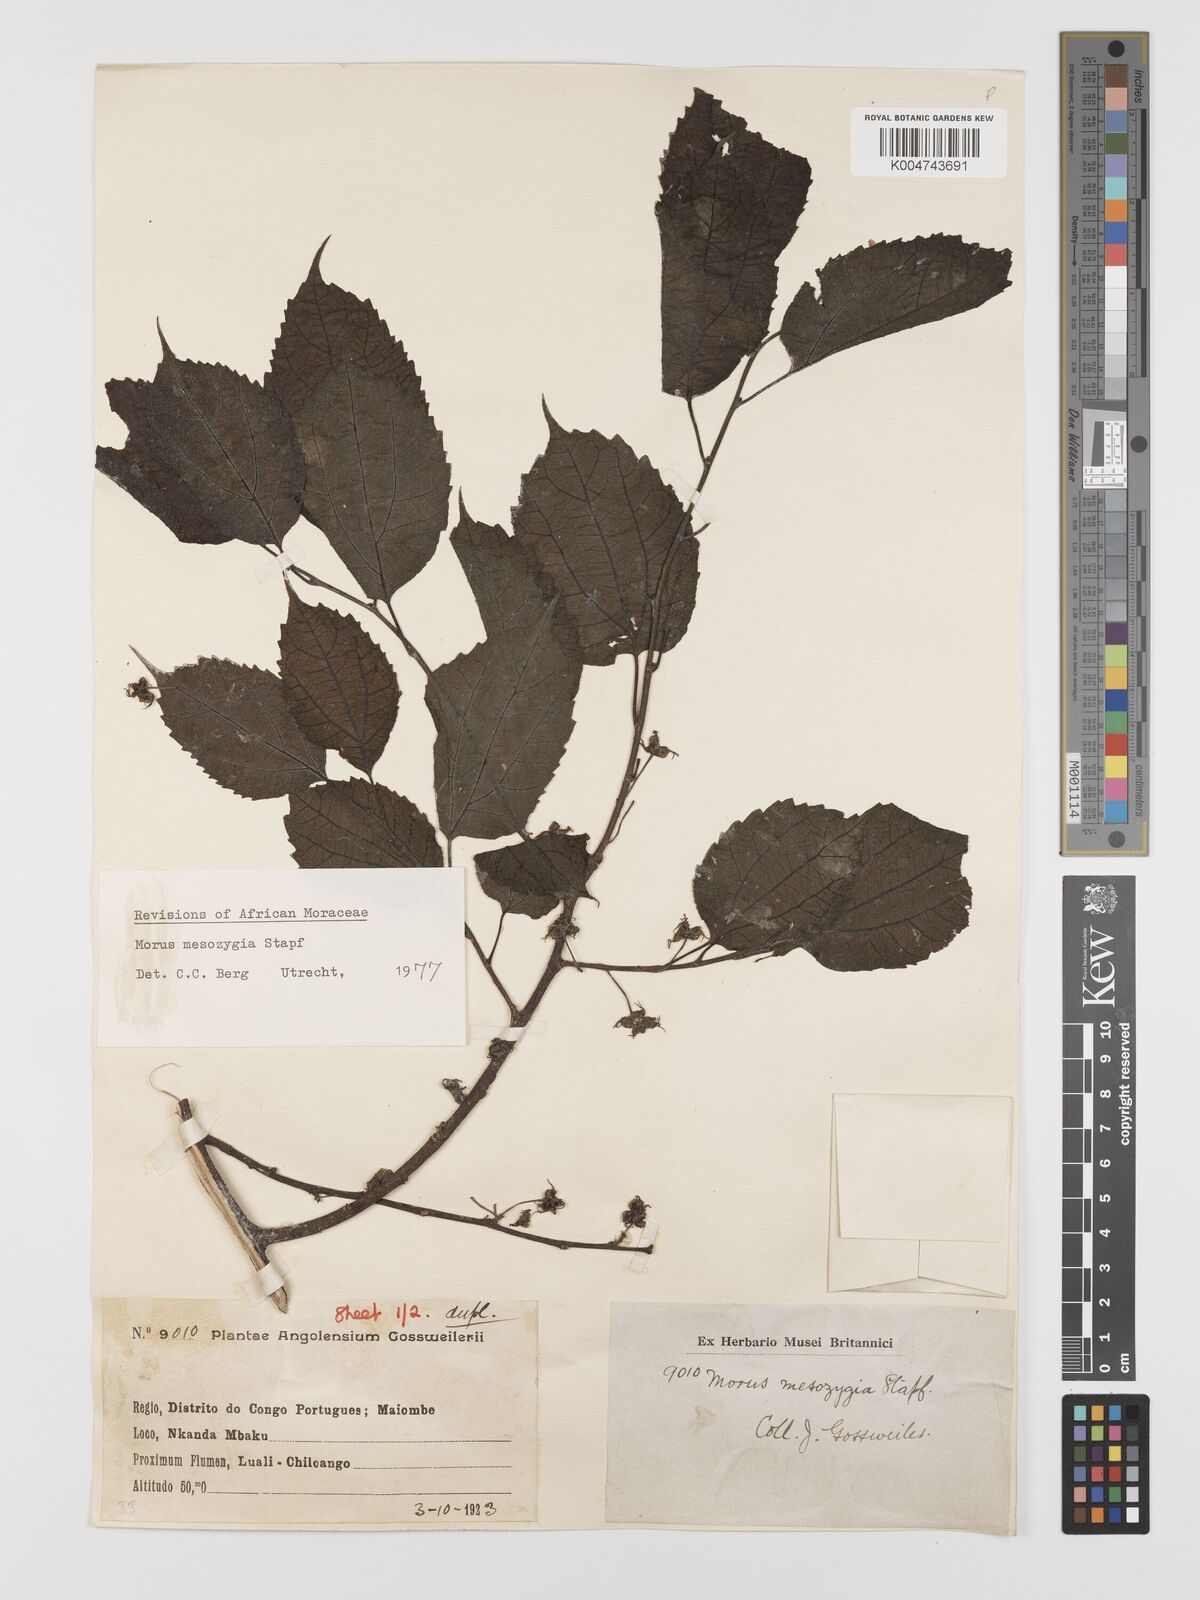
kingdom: Plantae
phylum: Tracheophyta
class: Magnoliopsida
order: Rosales
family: Moraceae
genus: Afromorus
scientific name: Afromorus mesozygia
